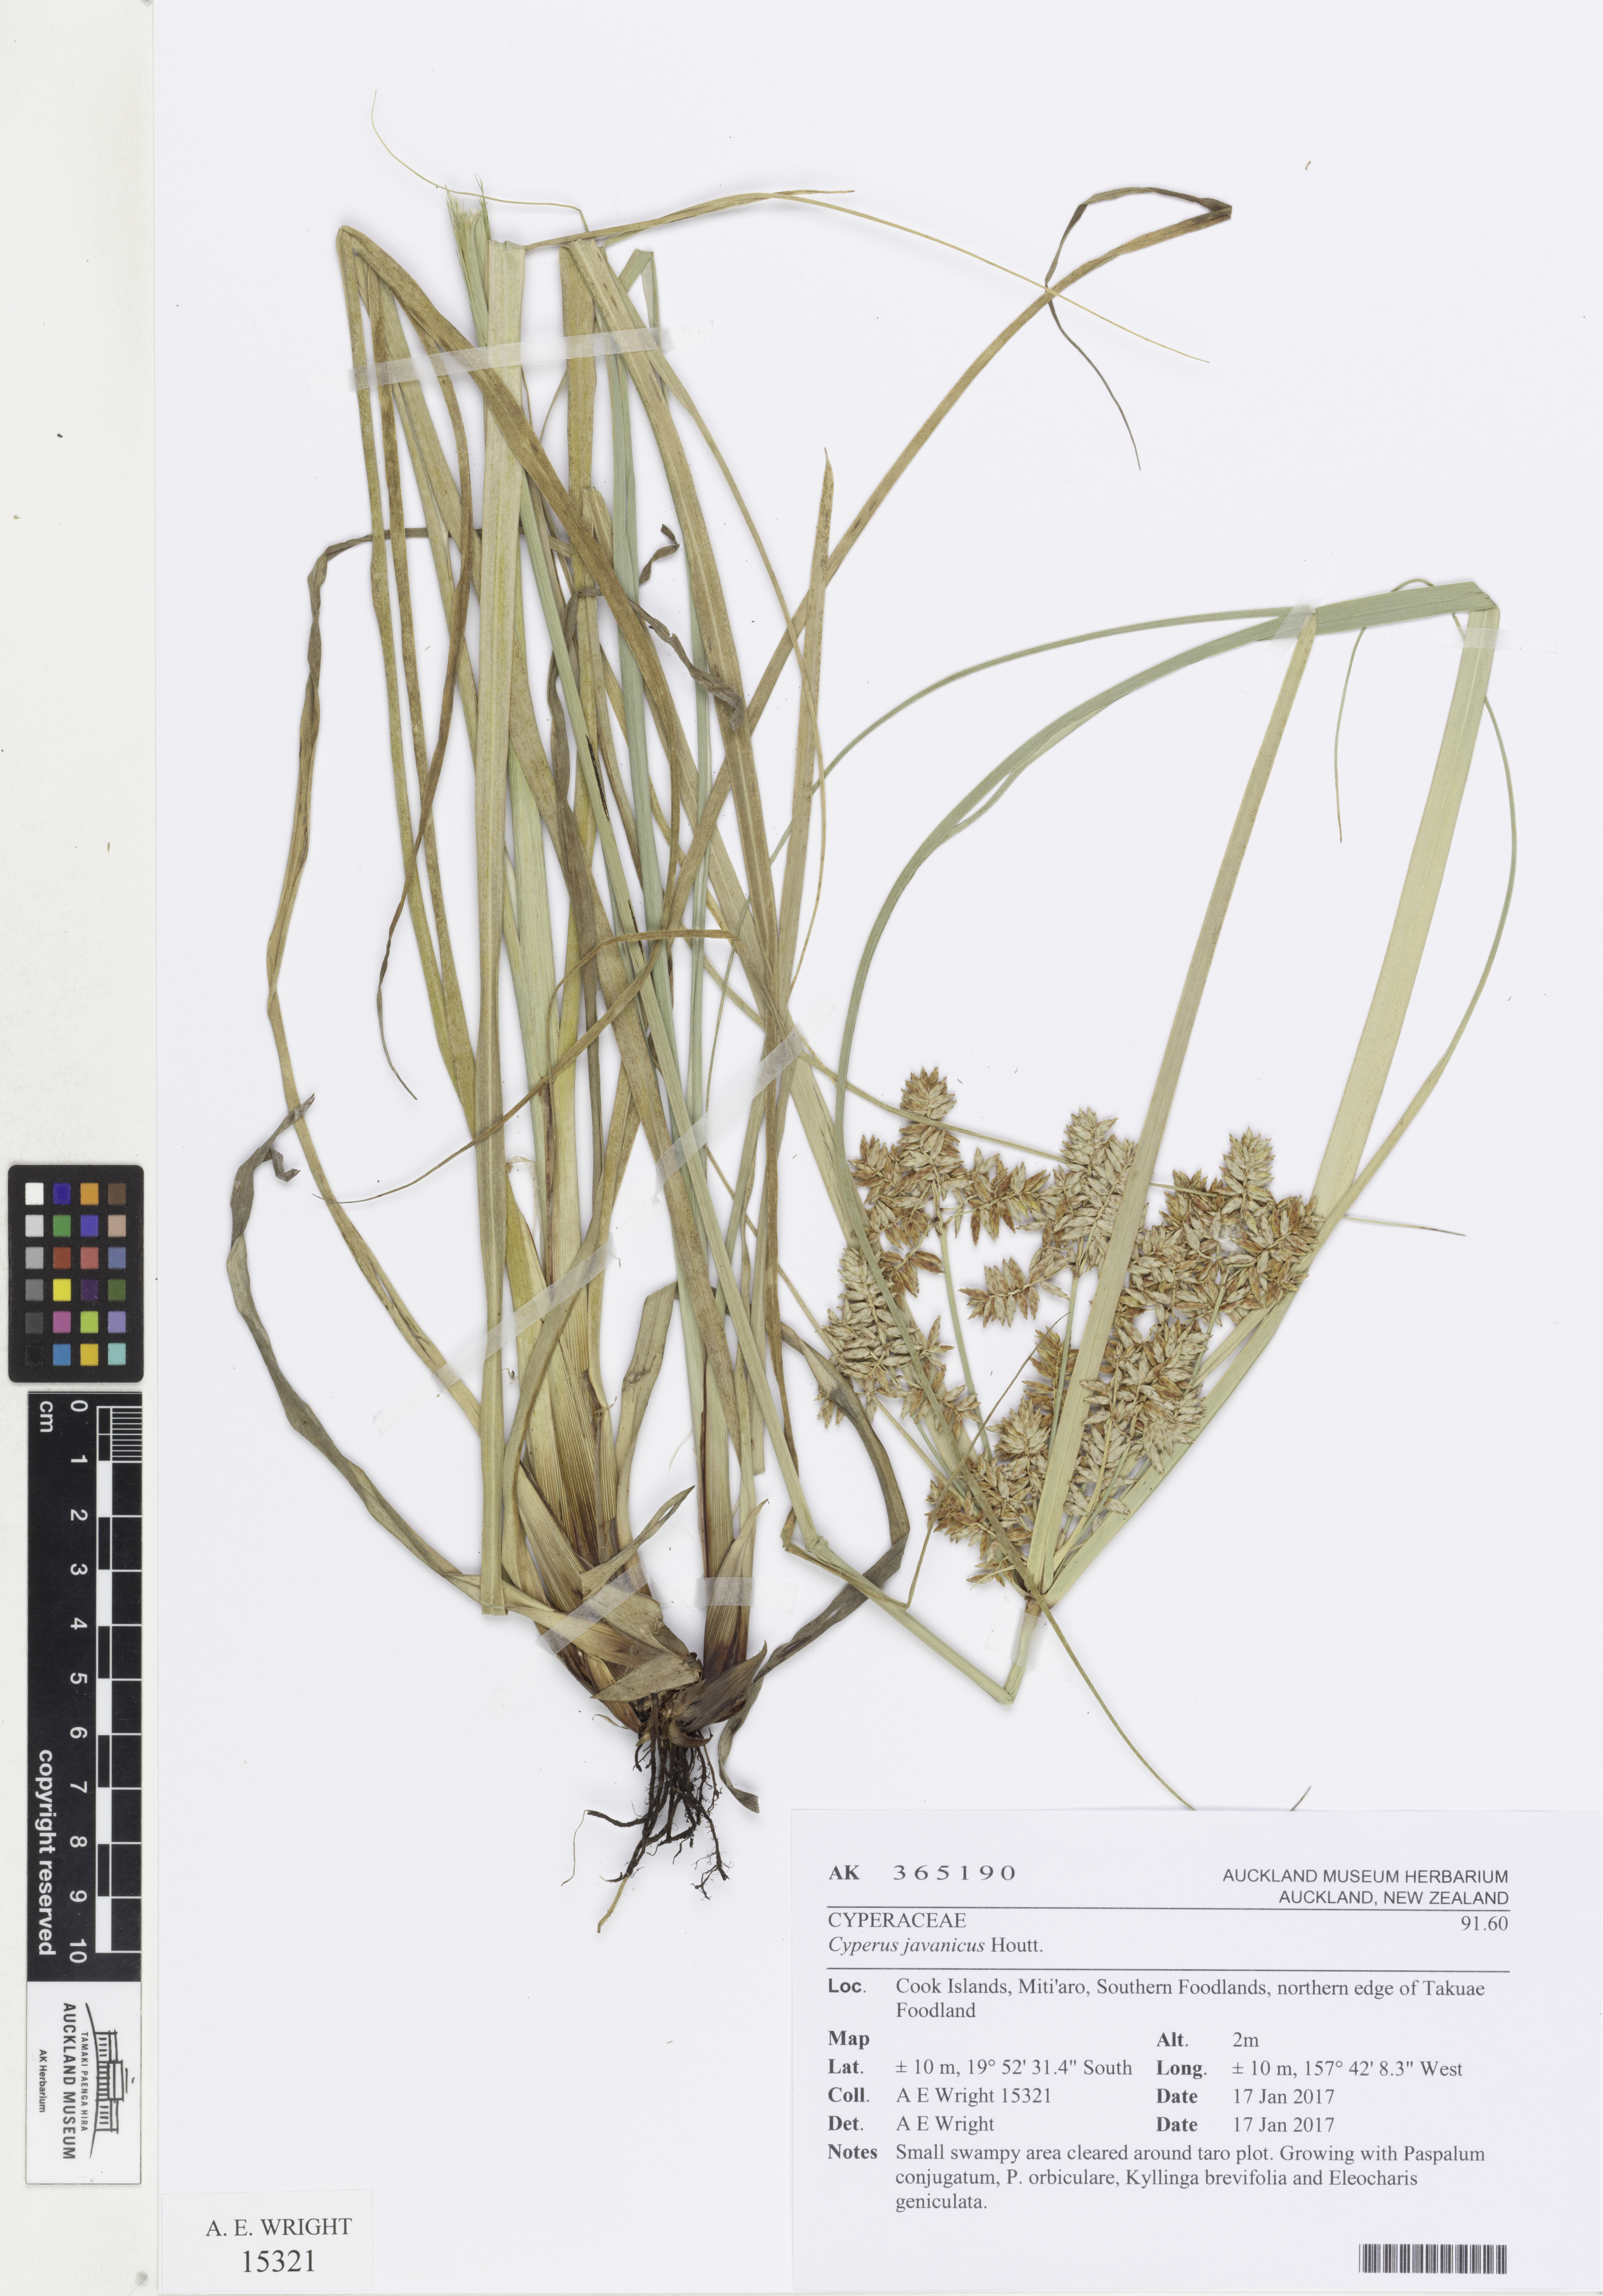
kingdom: Plantae
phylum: Tracheophyta
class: Liliopsida
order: Poales
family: Cyperaceae
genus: Cyperus
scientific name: Cyperus javanicus
